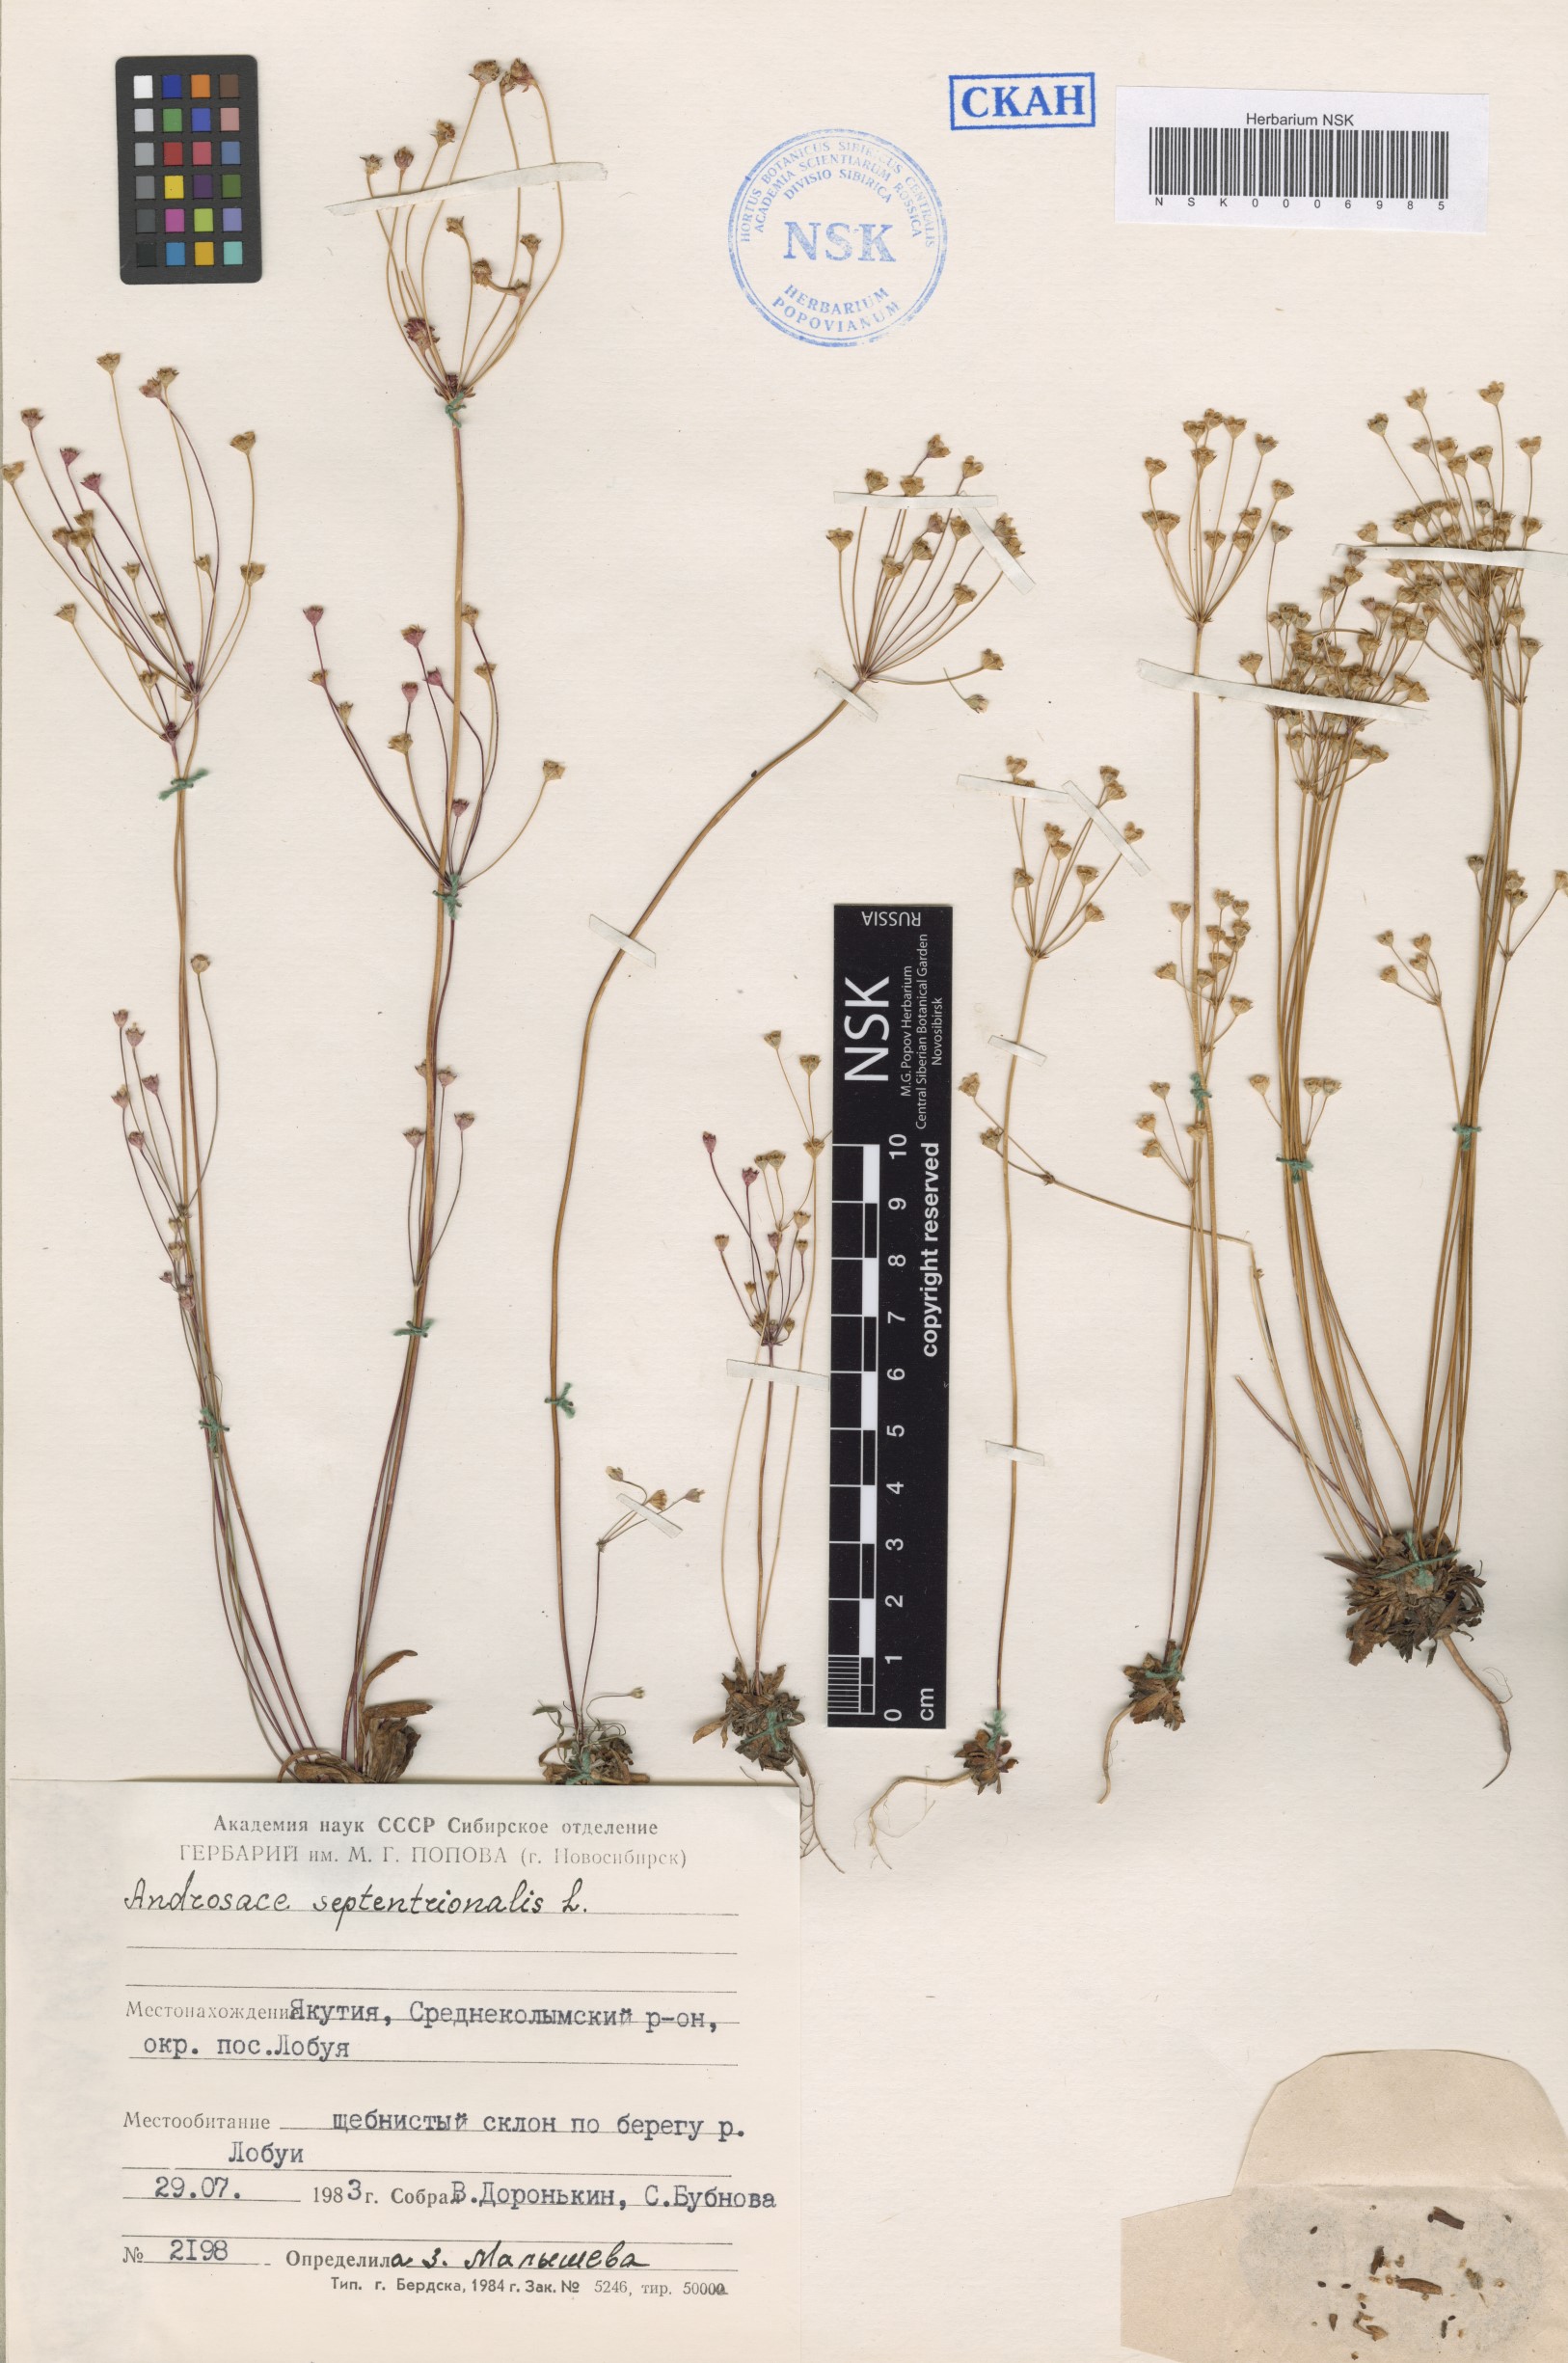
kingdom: Plantae
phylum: Tracheophyta
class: Magnoliopsida
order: Ericales
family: Primulaceae
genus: Androsace
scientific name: Androsace septentrionalis
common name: Hairy northern fairy-candelabra
